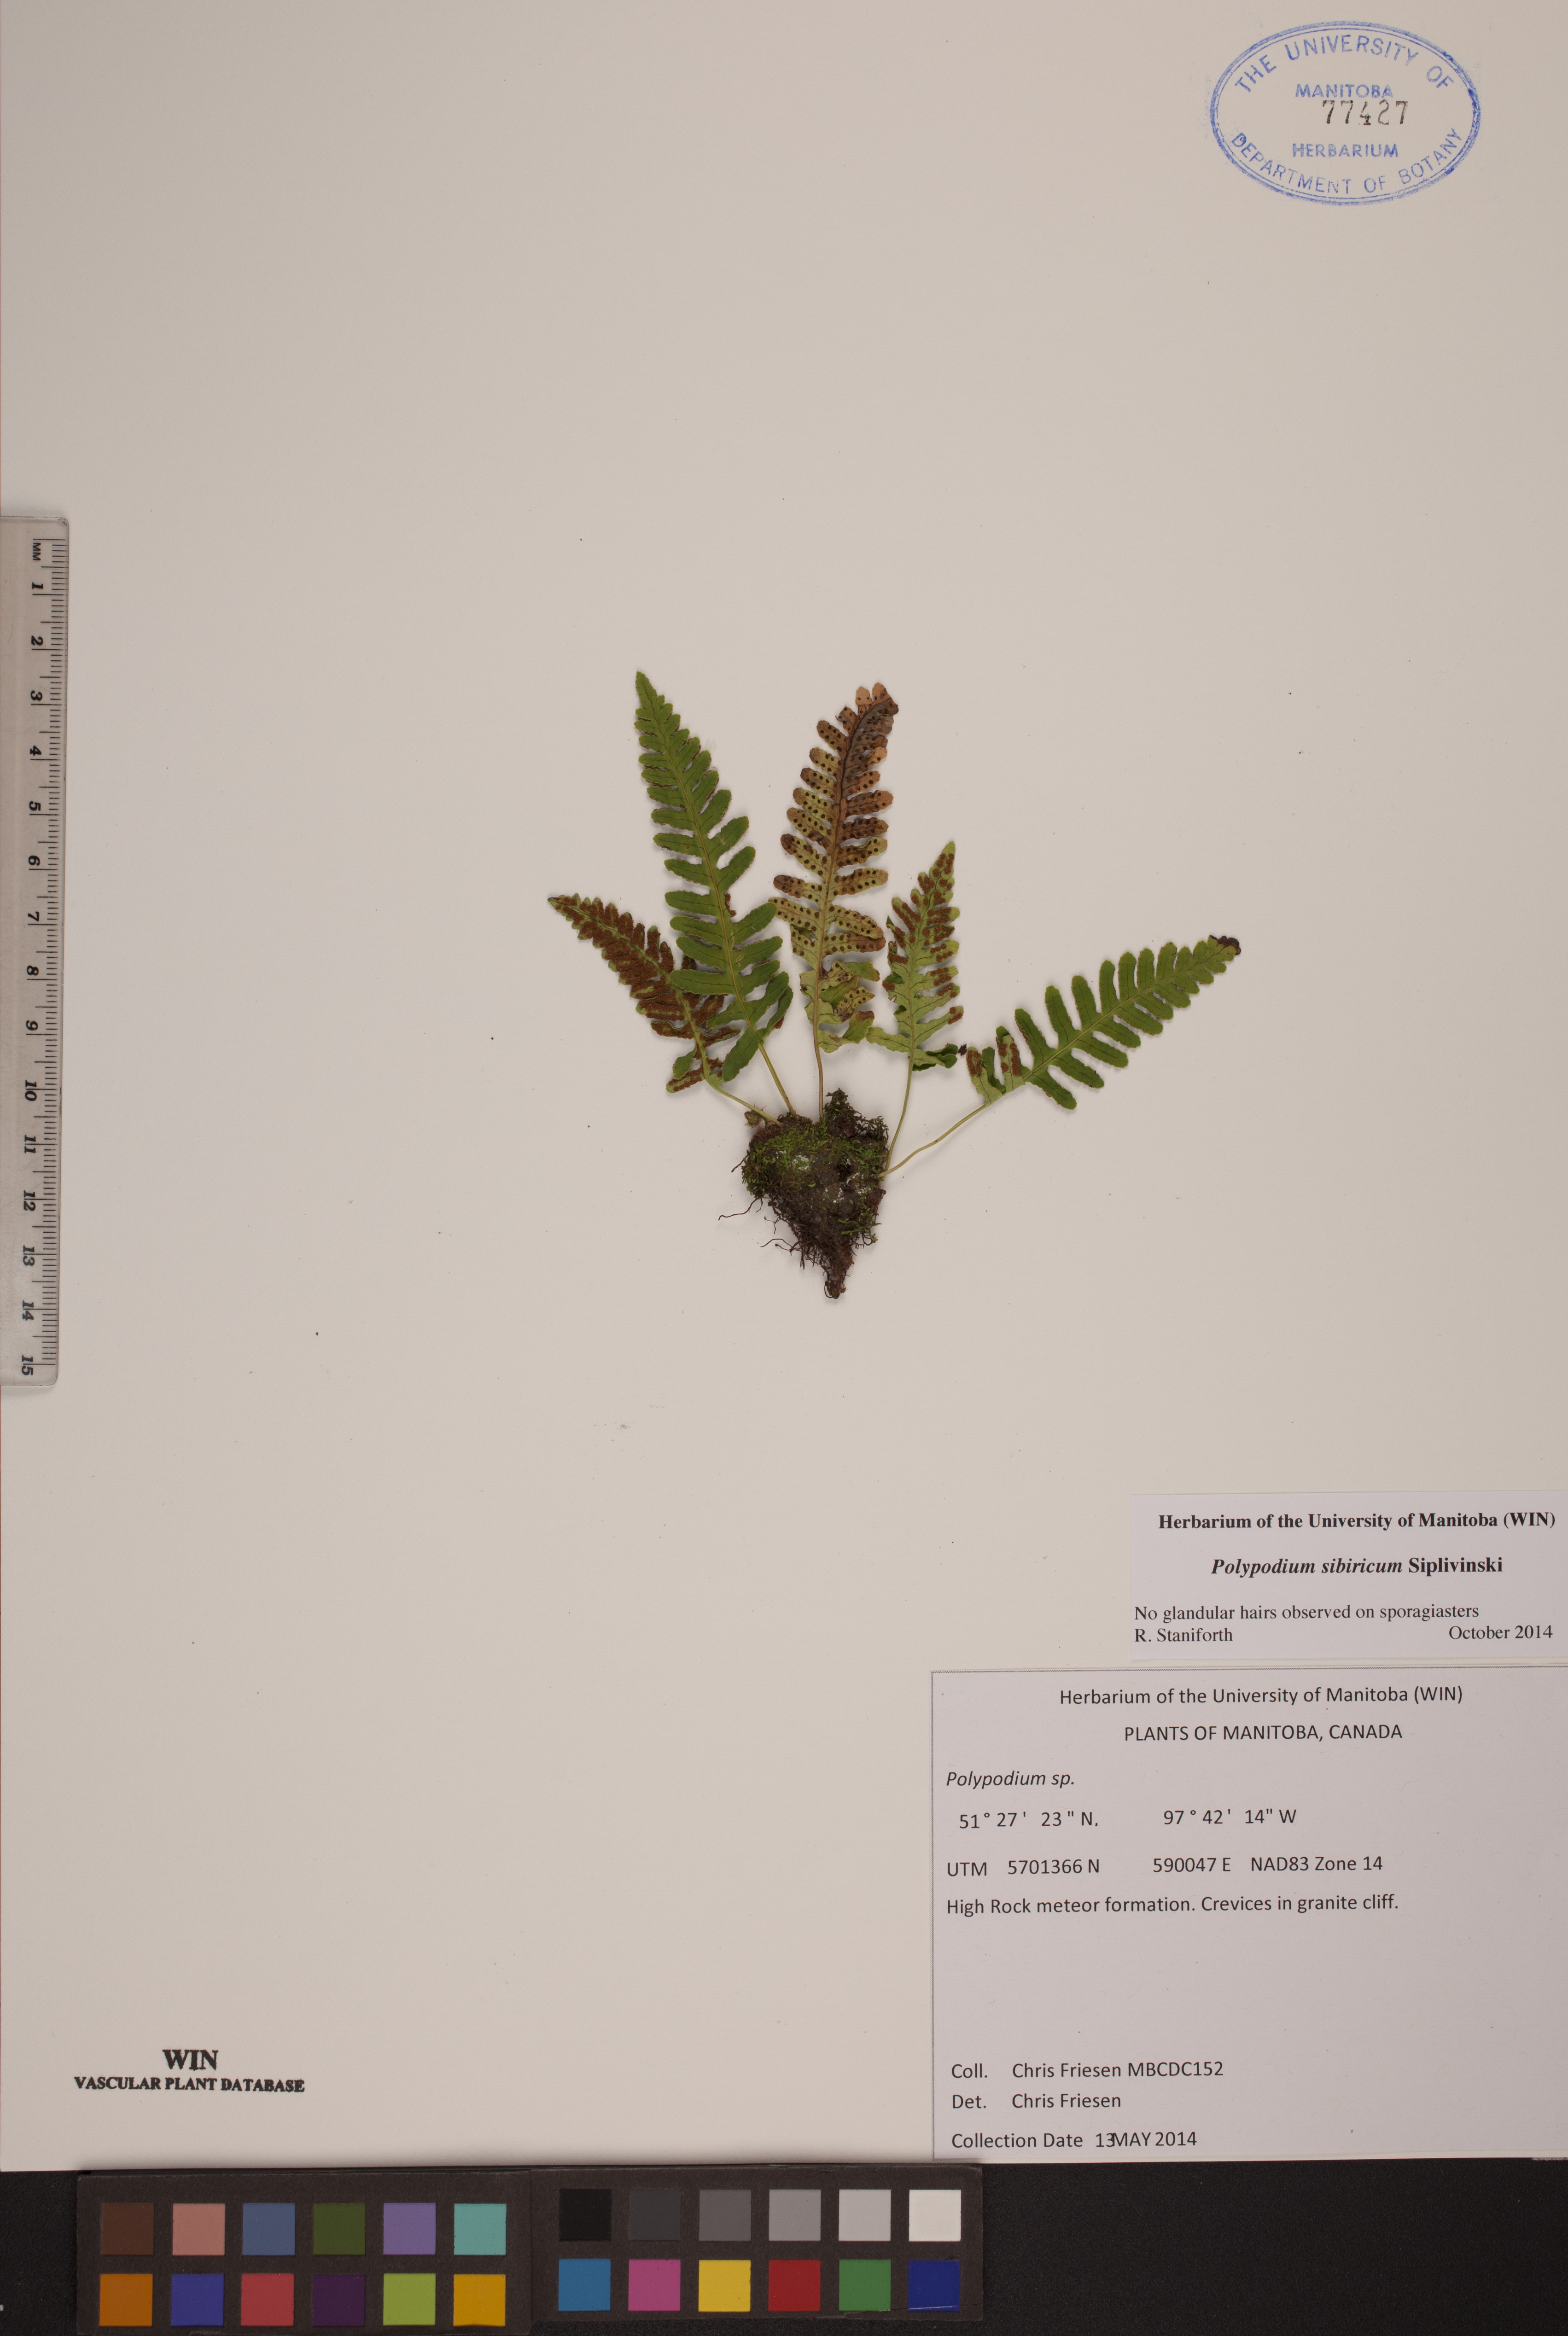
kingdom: Plantae
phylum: Tracheophyta
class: Polypodiopsida
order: Polypodiales
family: Polypodiaceae
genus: Polypodium
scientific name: Polypodium sibiricum
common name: Siberian polypody
